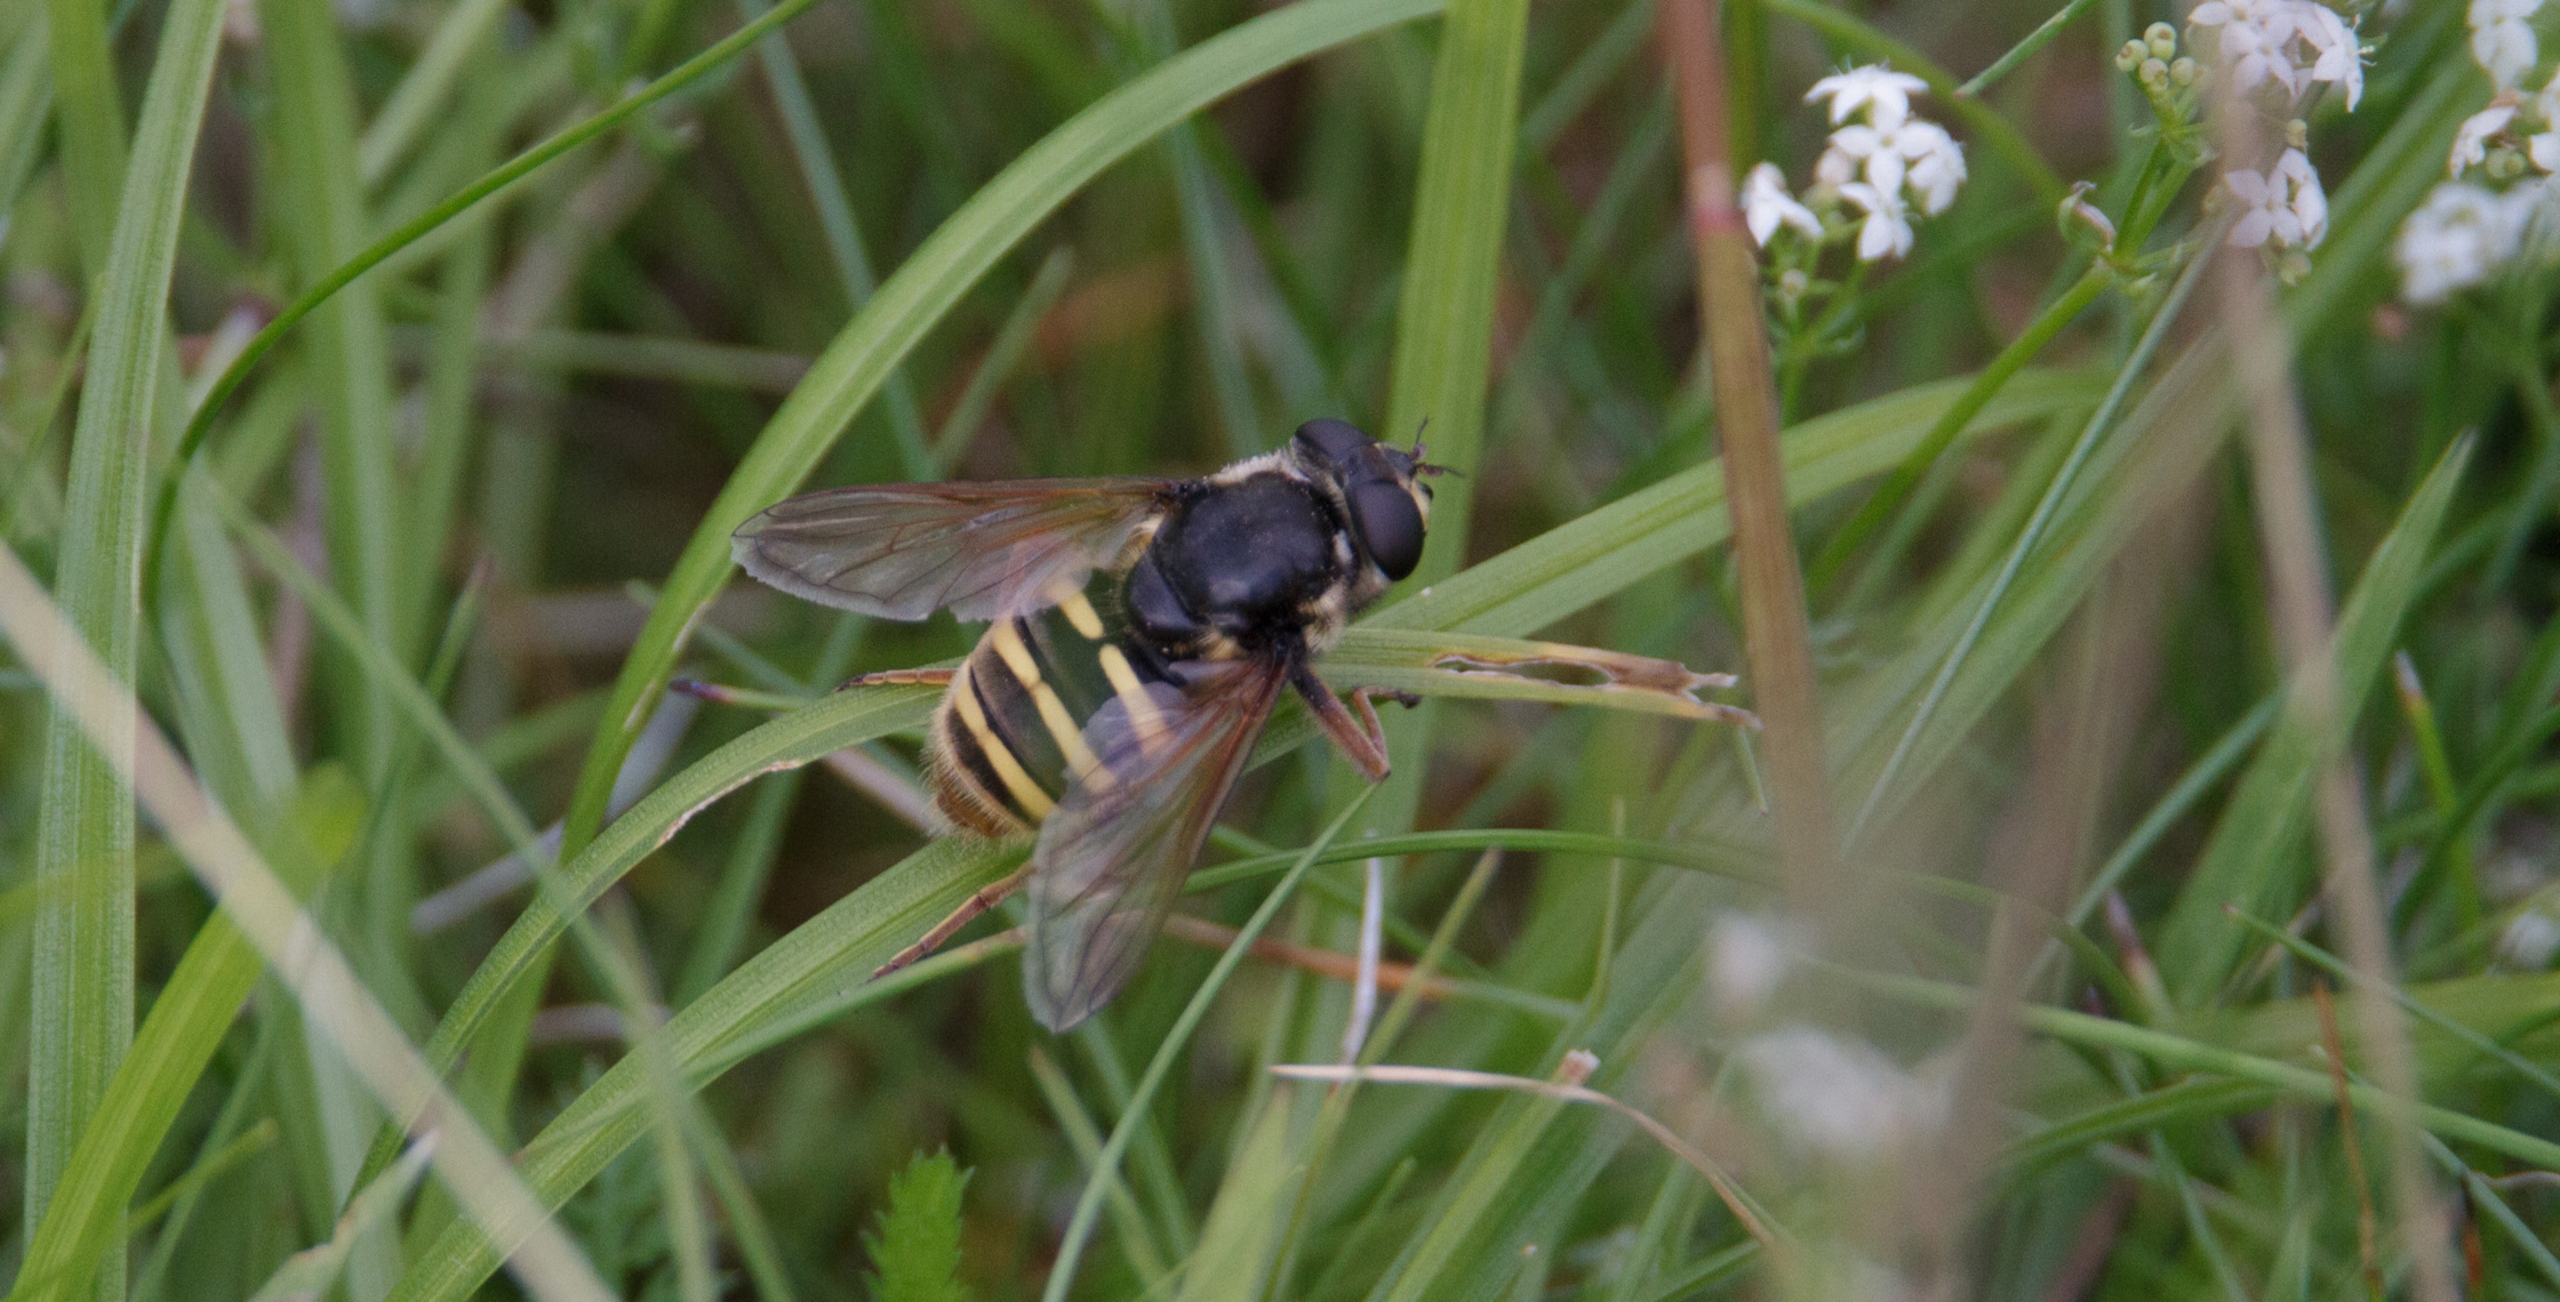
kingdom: Animalia
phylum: Arthropoda
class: Insecta
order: Diptera
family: Syrphidae
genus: Sericomyia
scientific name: Sericomyia silentis
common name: Tørve-silkesvirreflue
